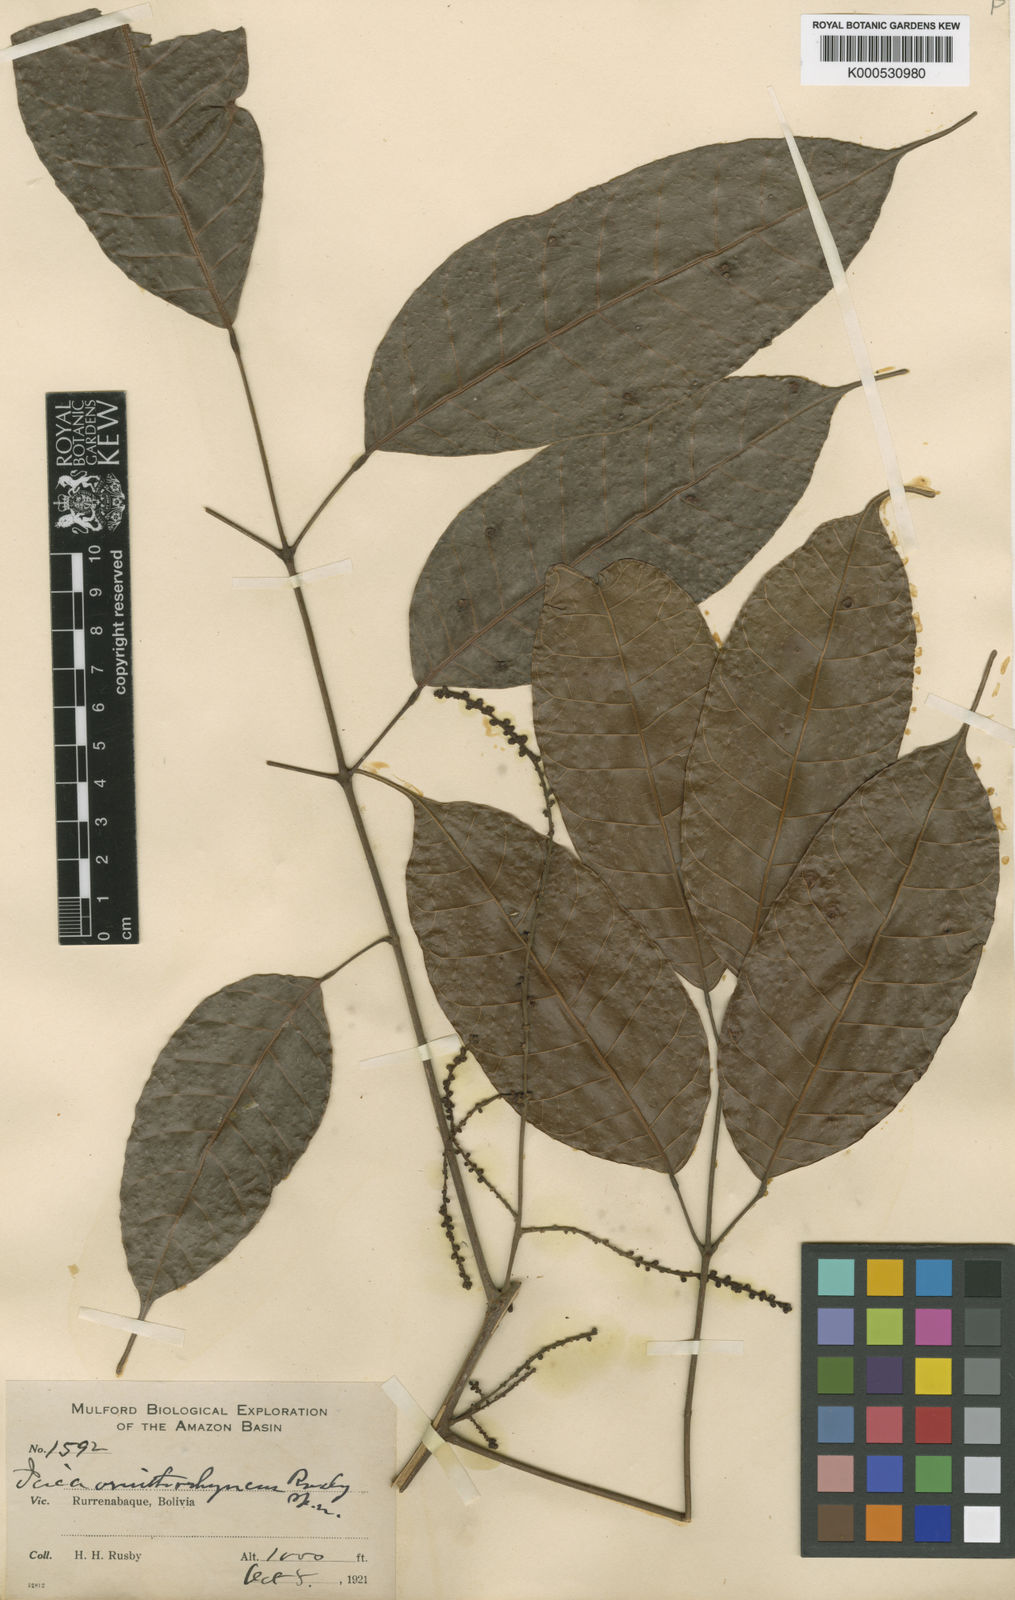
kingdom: Plantae
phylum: Tracheophyta
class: Magnoliopsida
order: Sapindales
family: Burseraceae
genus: Protium
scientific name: Protium sagotianum
